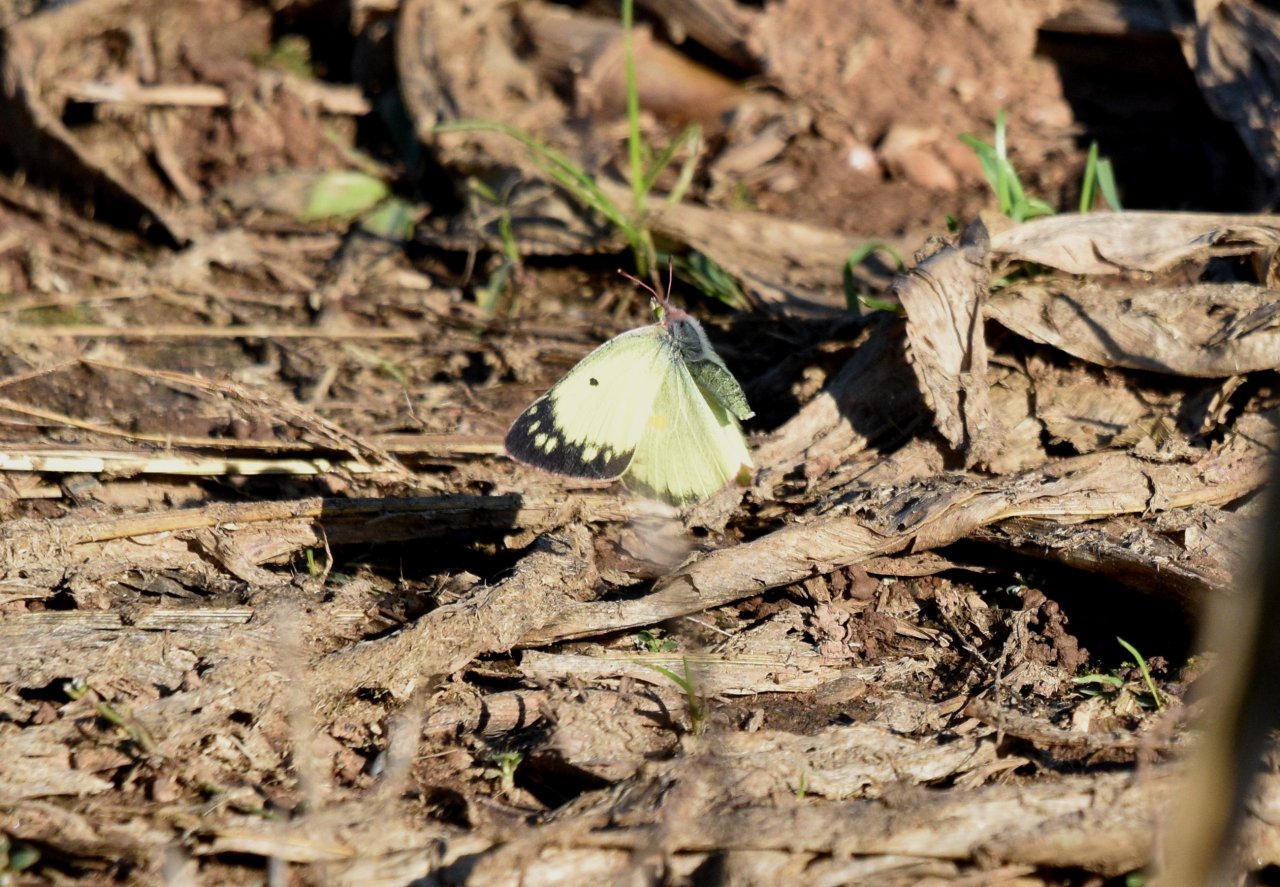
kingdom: Animalia
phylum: Arthropoda
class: Insecta
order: Lepidoptera
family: Pieridae
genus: Colias
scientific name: Colias philodice
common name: Clouded Sulphur
